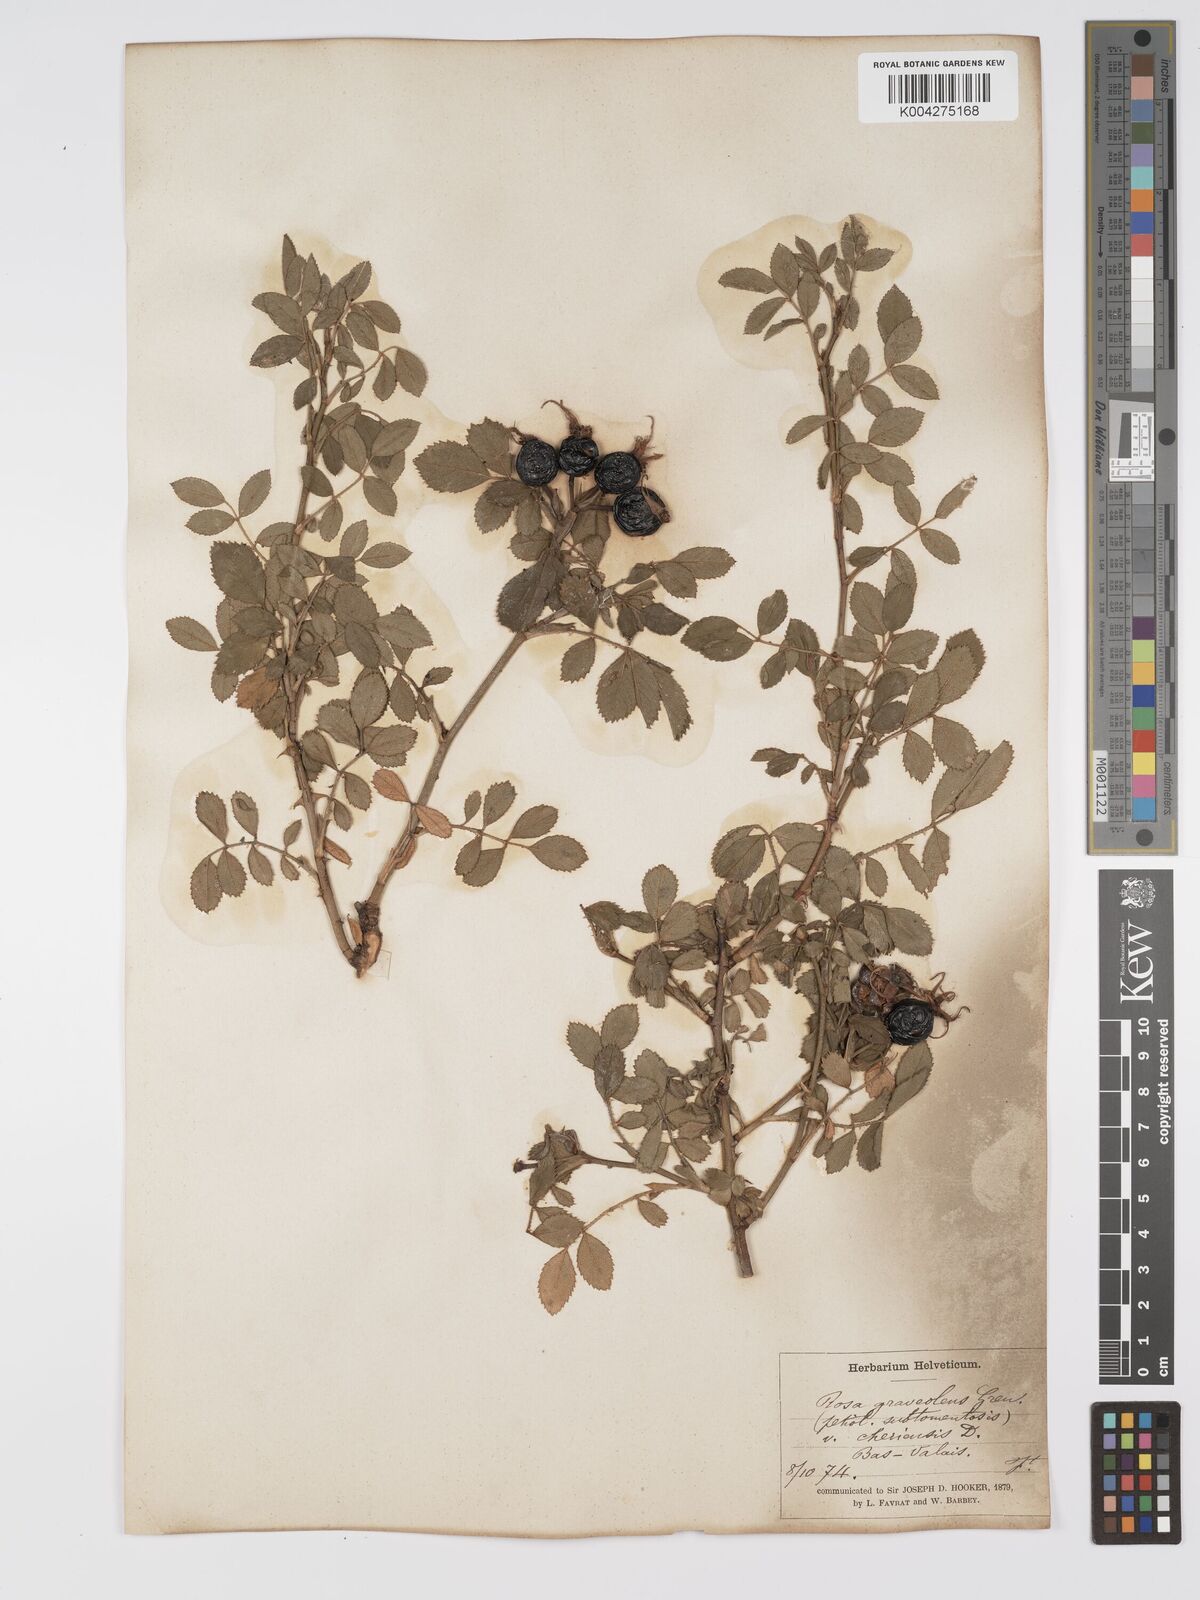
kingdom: Plantae
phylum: Tracheophyta
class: Magnoliopsida
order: Rosales
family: Rosaceae
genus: Rosa
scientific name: Rosa
